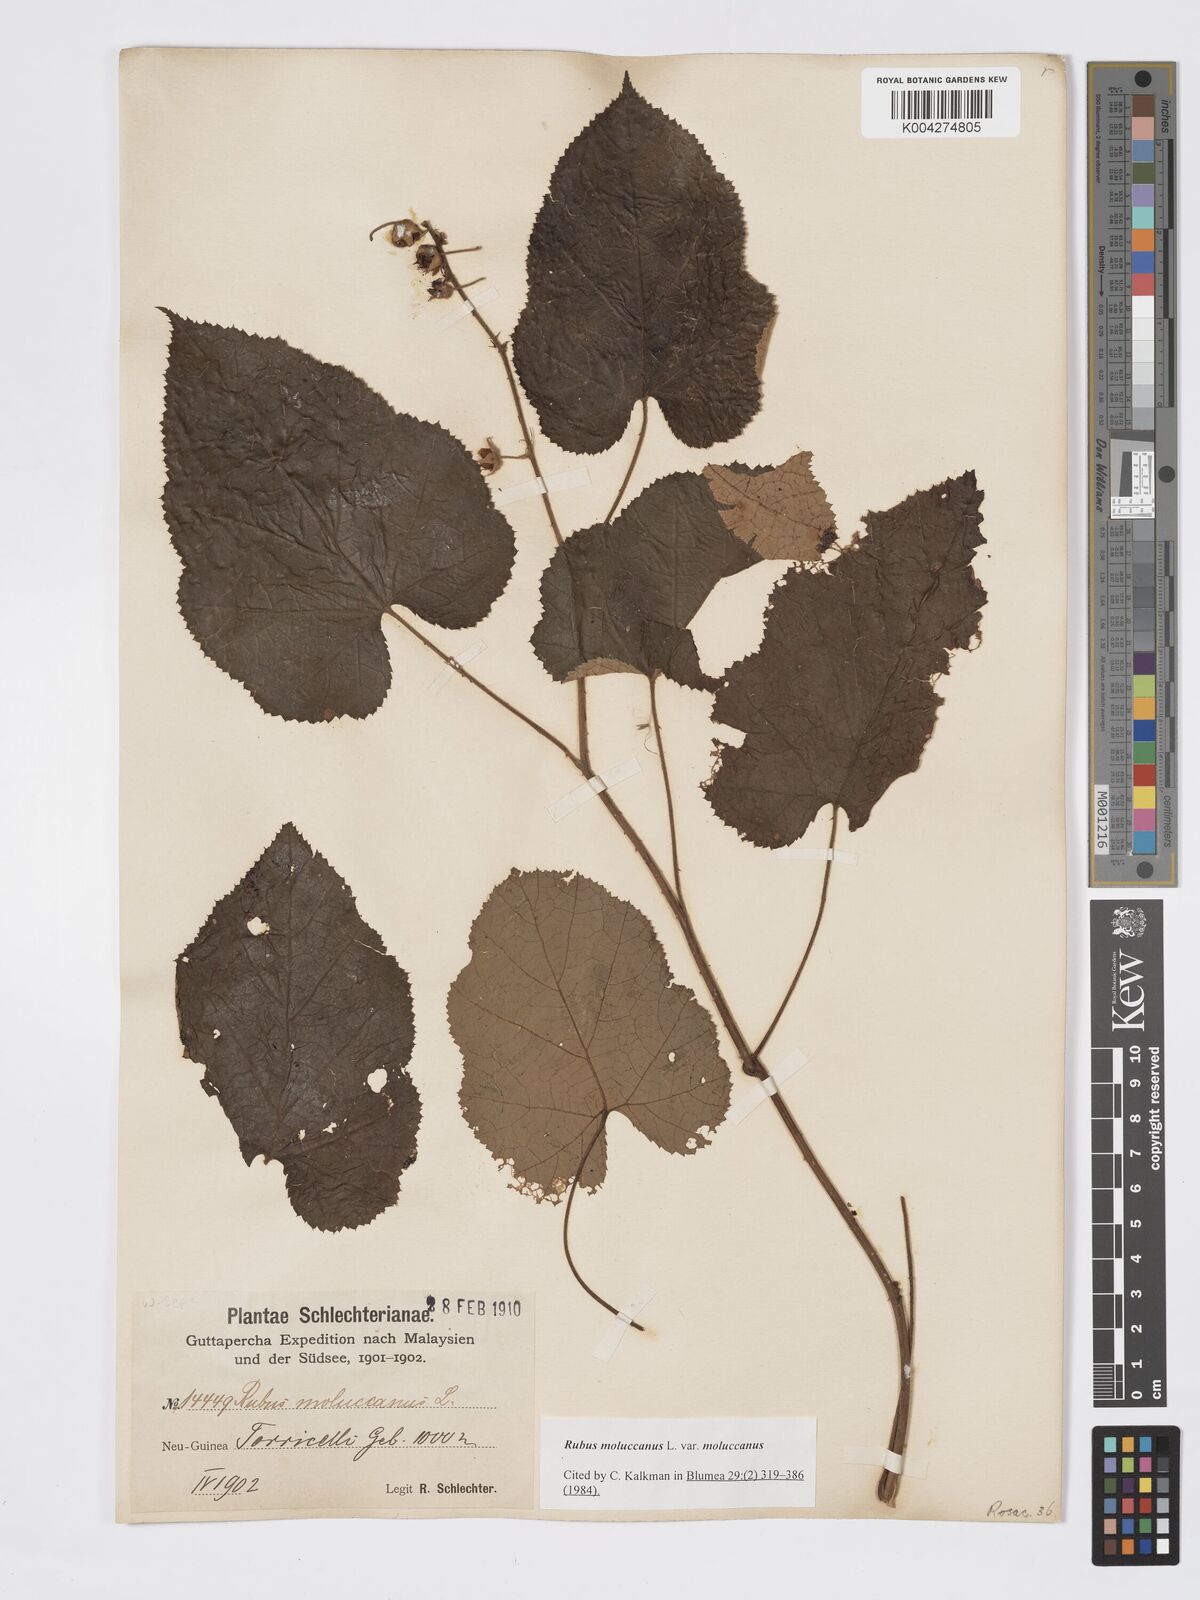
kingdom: Plantae
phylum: Tracheophyta
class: Magnoliopsida
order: Rosales
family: Rosaceae
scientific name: Rosaceae
